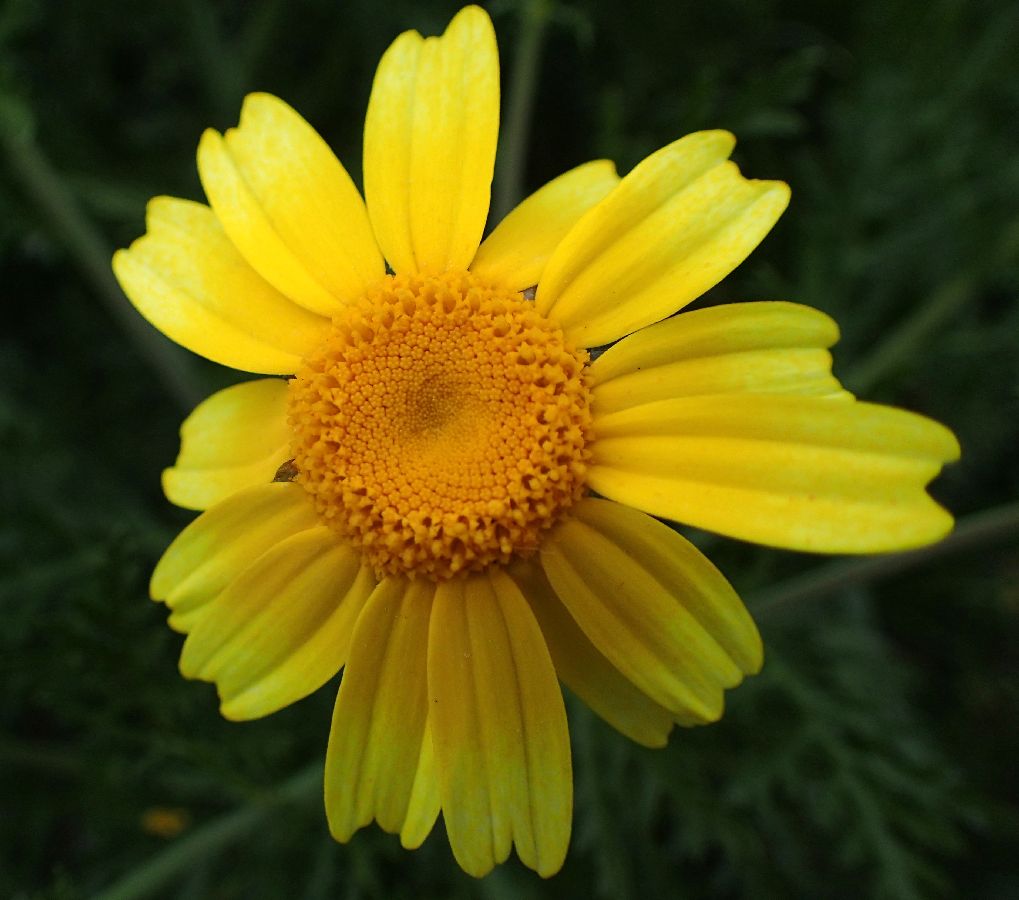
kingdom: Plantae
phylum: Tracheophyta
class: Magnoliopsida
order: Asterales
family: Asteraceae
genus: Glebionis
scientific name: Glebionis coronaria
